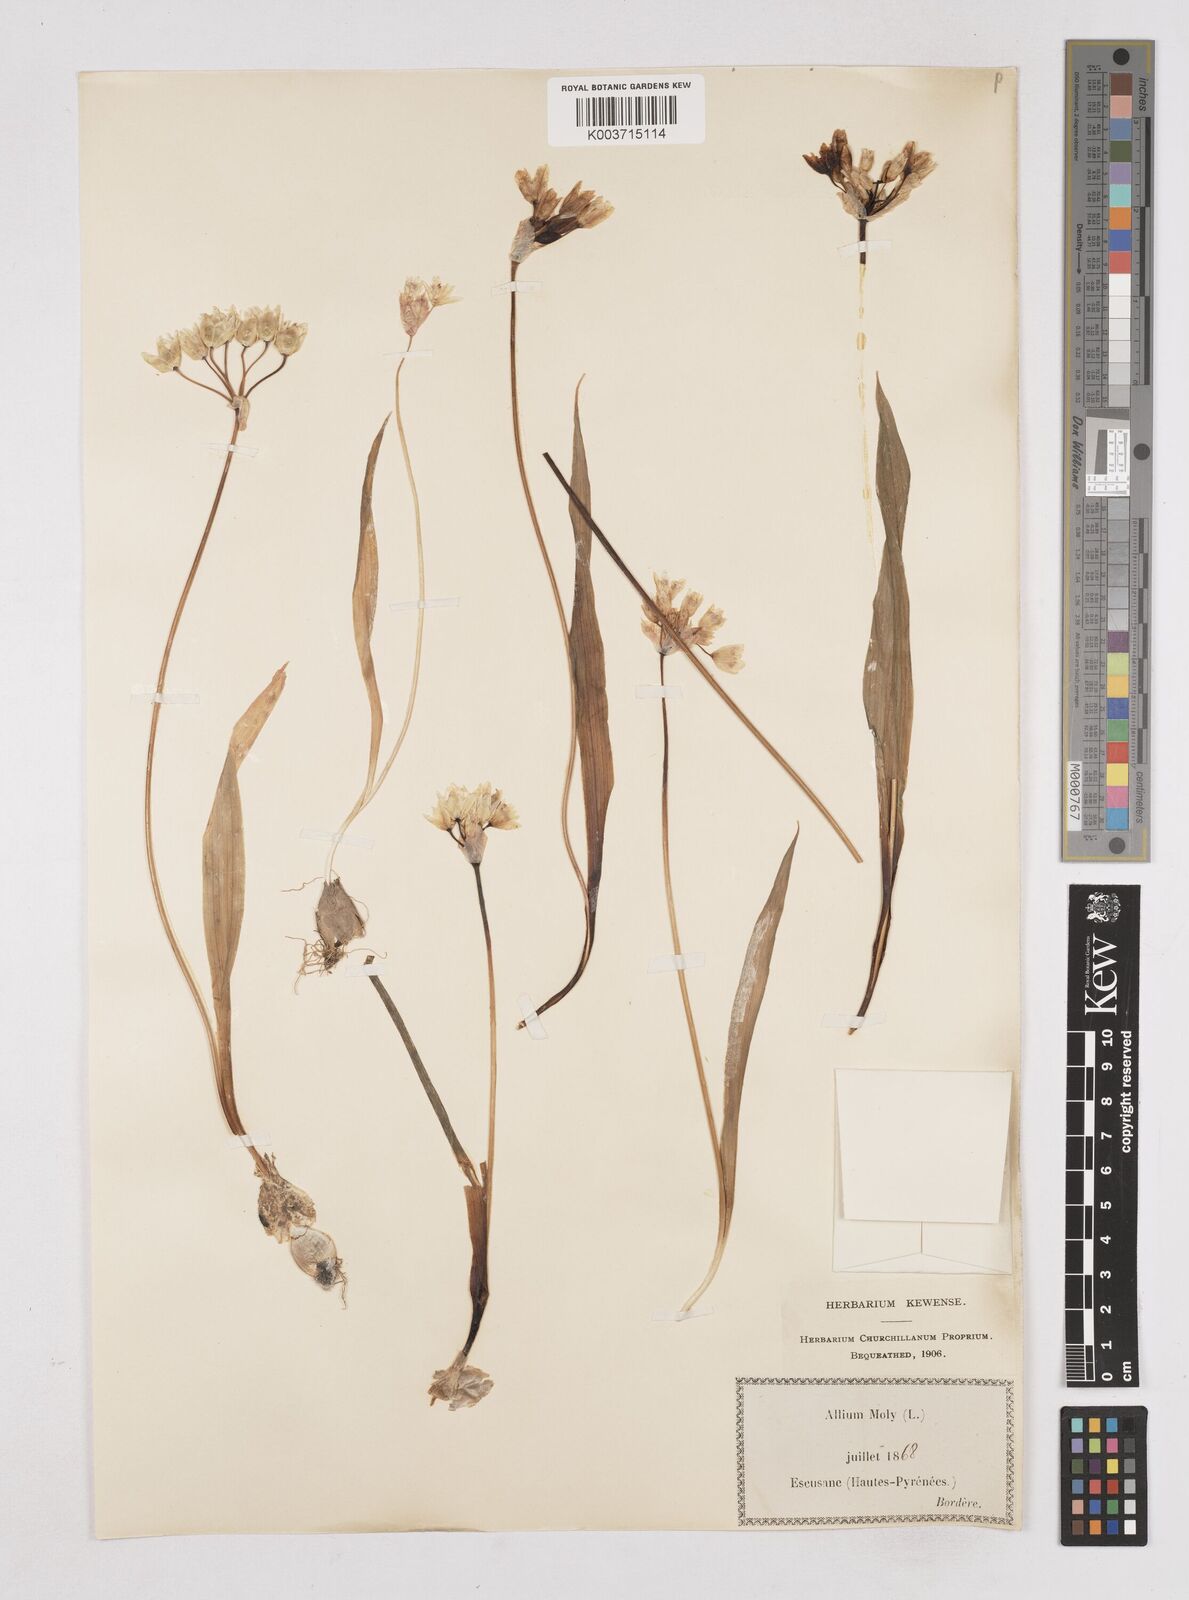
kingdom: Plantae
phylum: Tracheophyta
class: Liliopsida
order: Asparagales
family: Amaryllidaceae
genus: Allium
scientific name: Allium moly
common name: Yellow garlic
